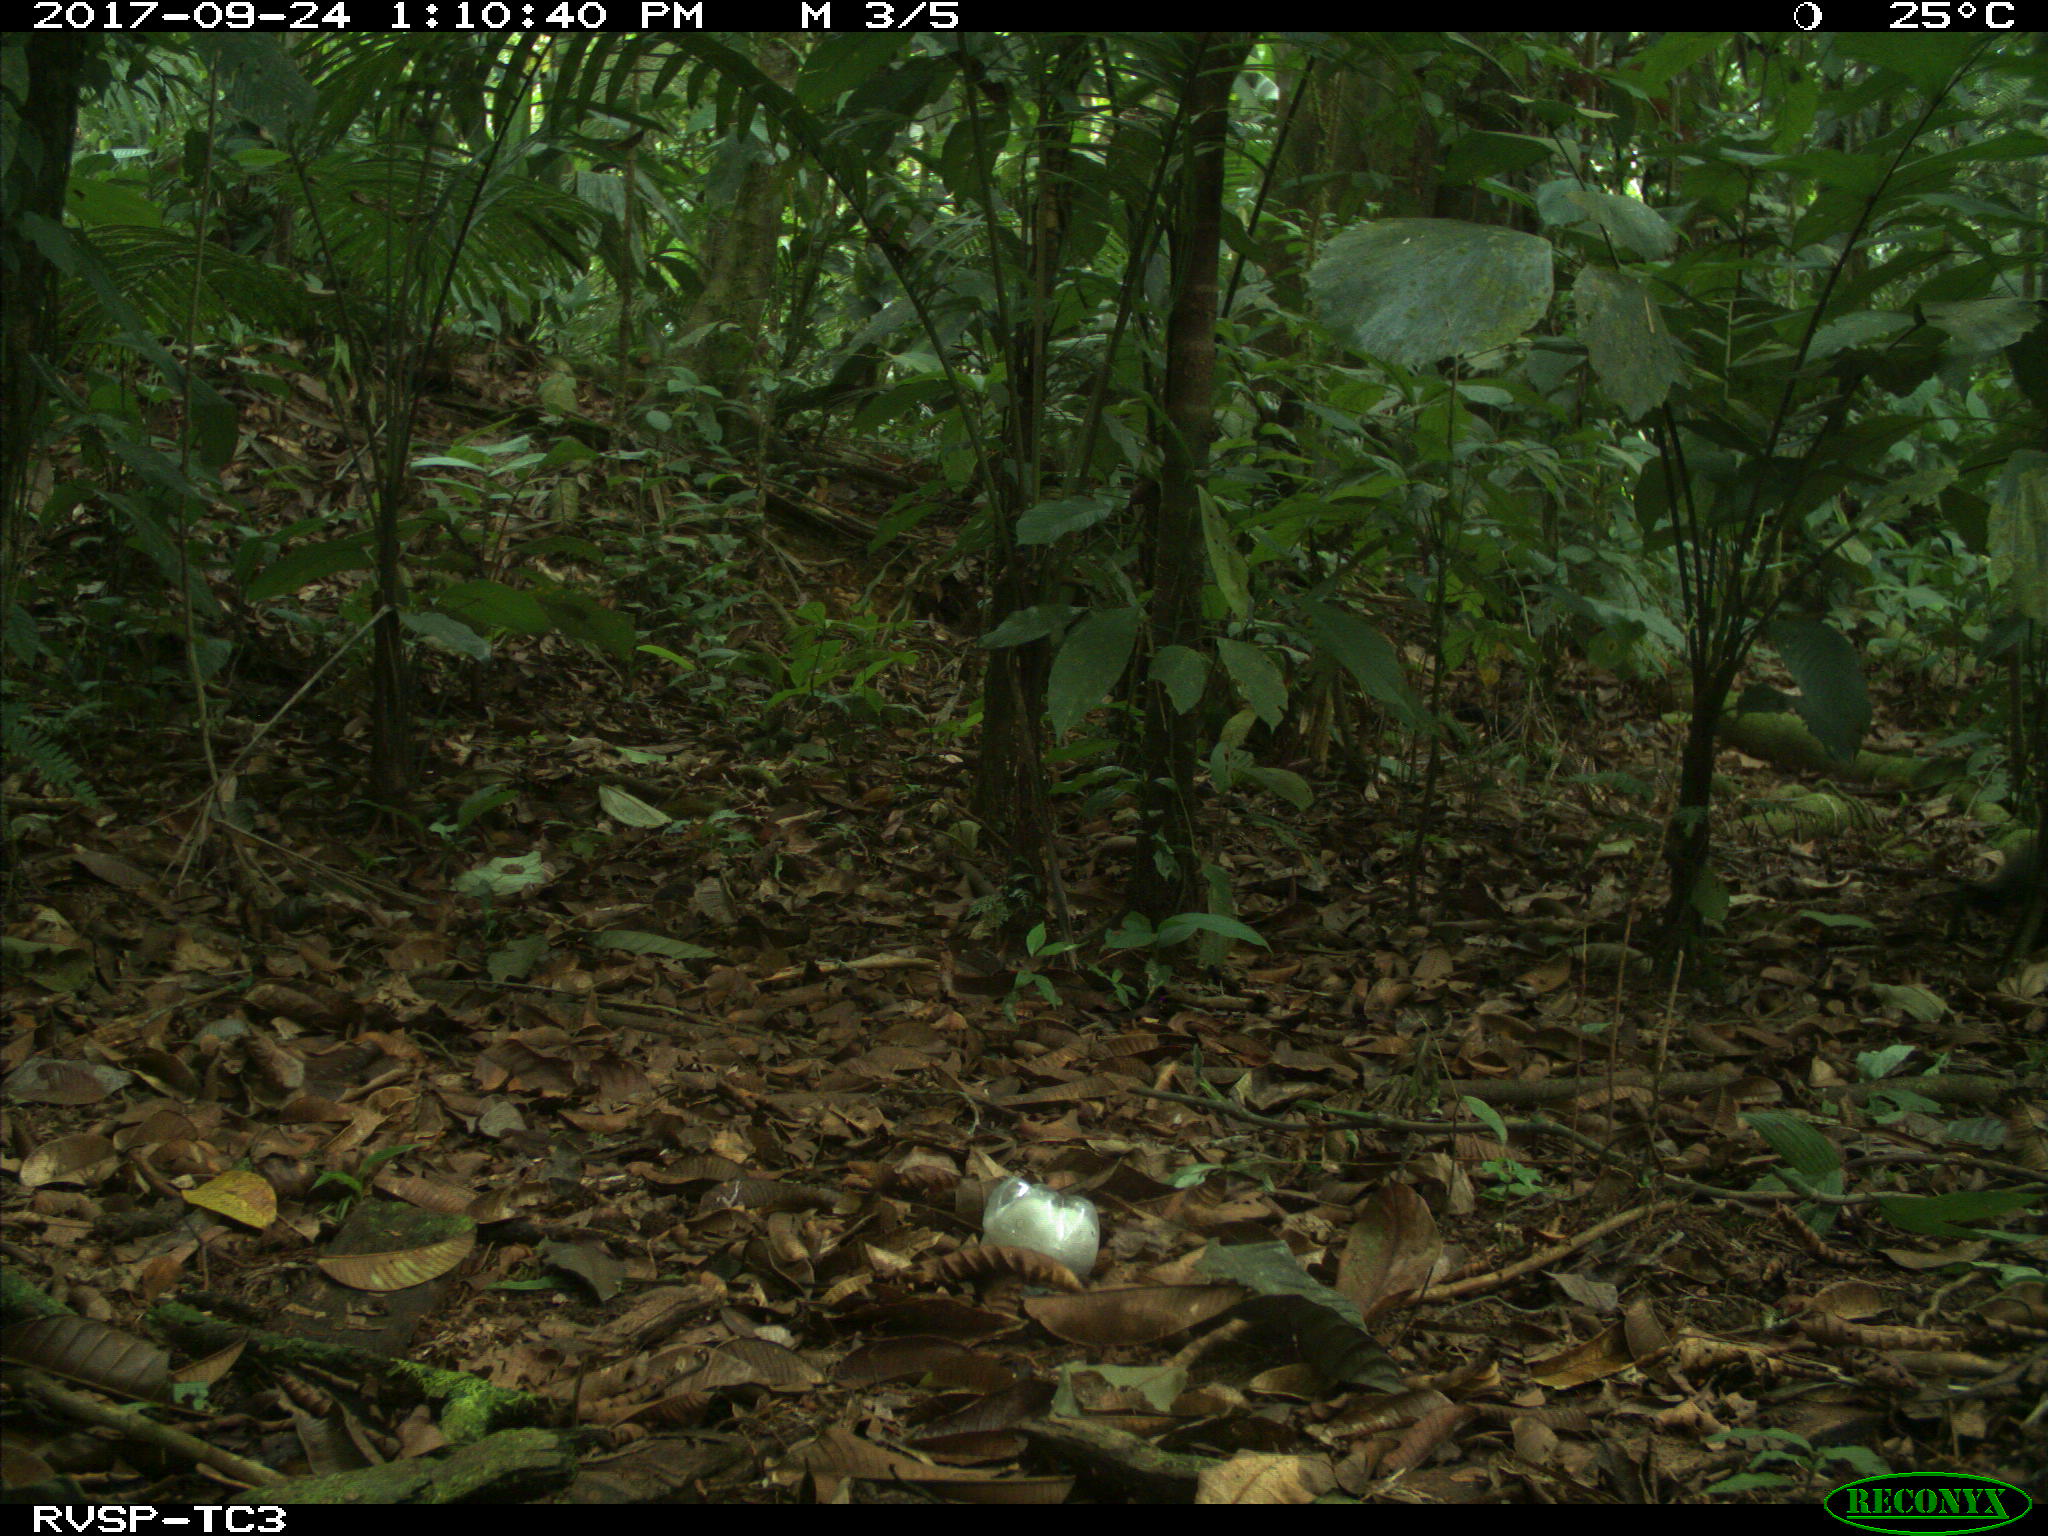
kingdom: Animalia
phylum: Chordata
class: Mammalia
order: Rodentia
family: Dasyproctidae
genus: Dasyprocta
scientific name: Dasyprocta punctata
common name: Central american agouti
